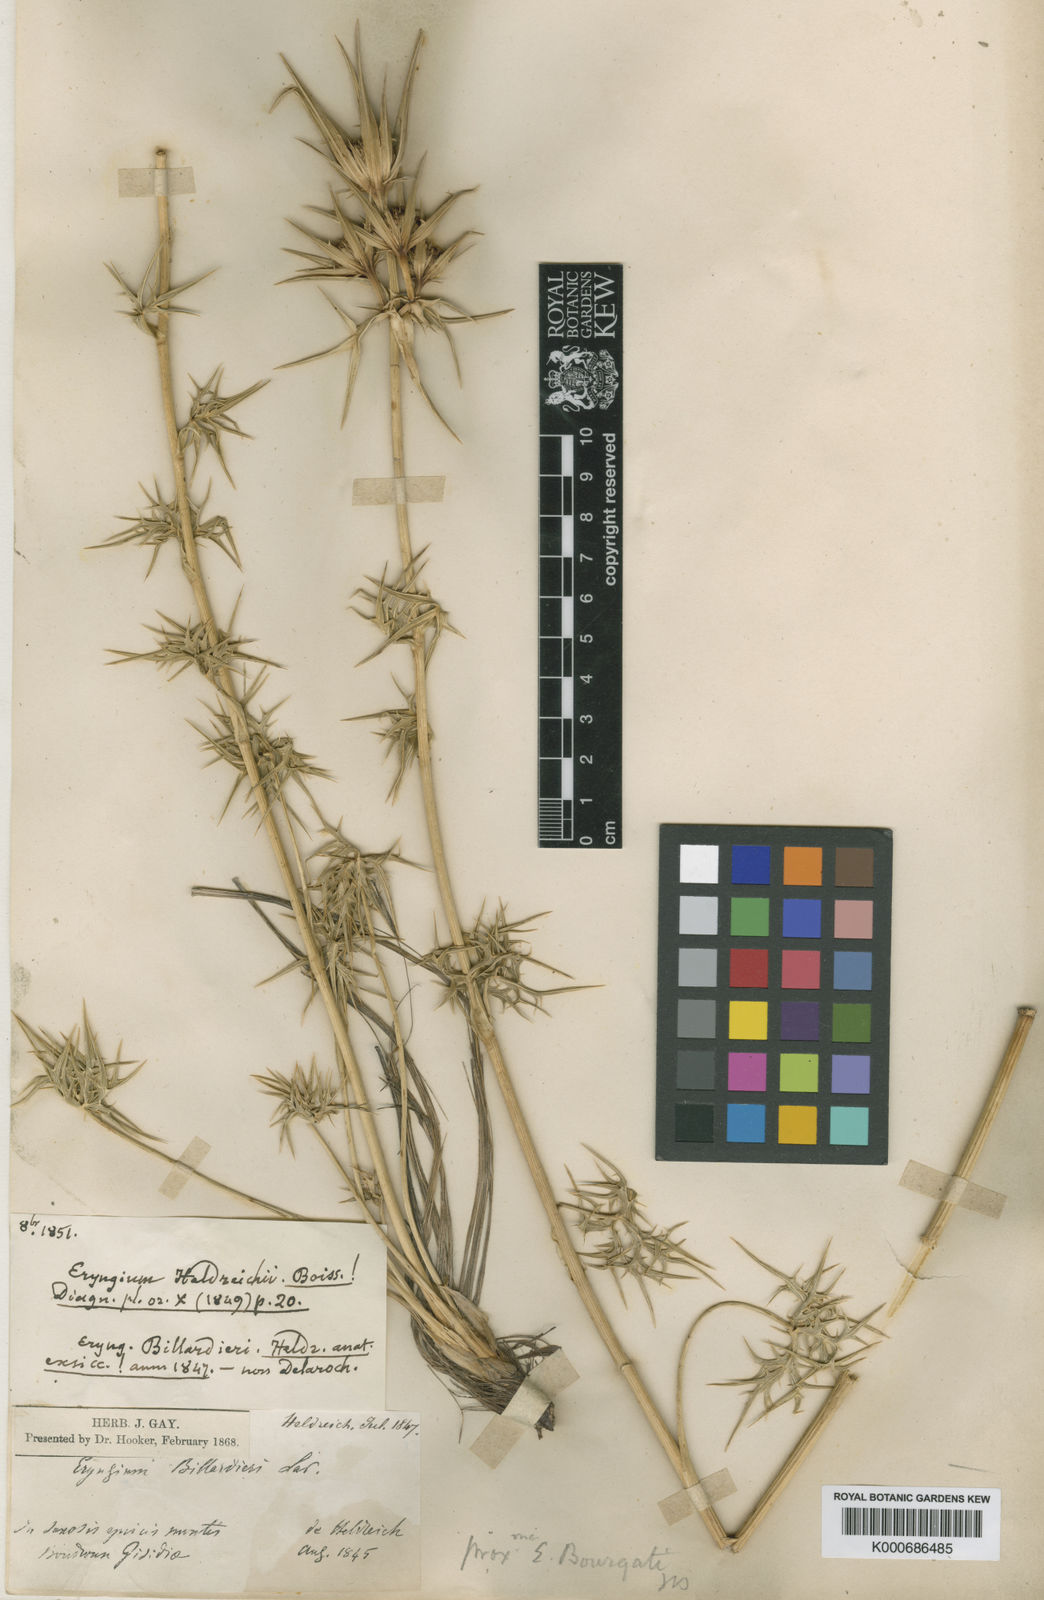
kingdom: Plantae
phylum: Tracheophyta
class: Magnoliopsida
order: Apiales
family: Apiaceae
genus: Eryngium
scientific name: Eryngium heldreichii
